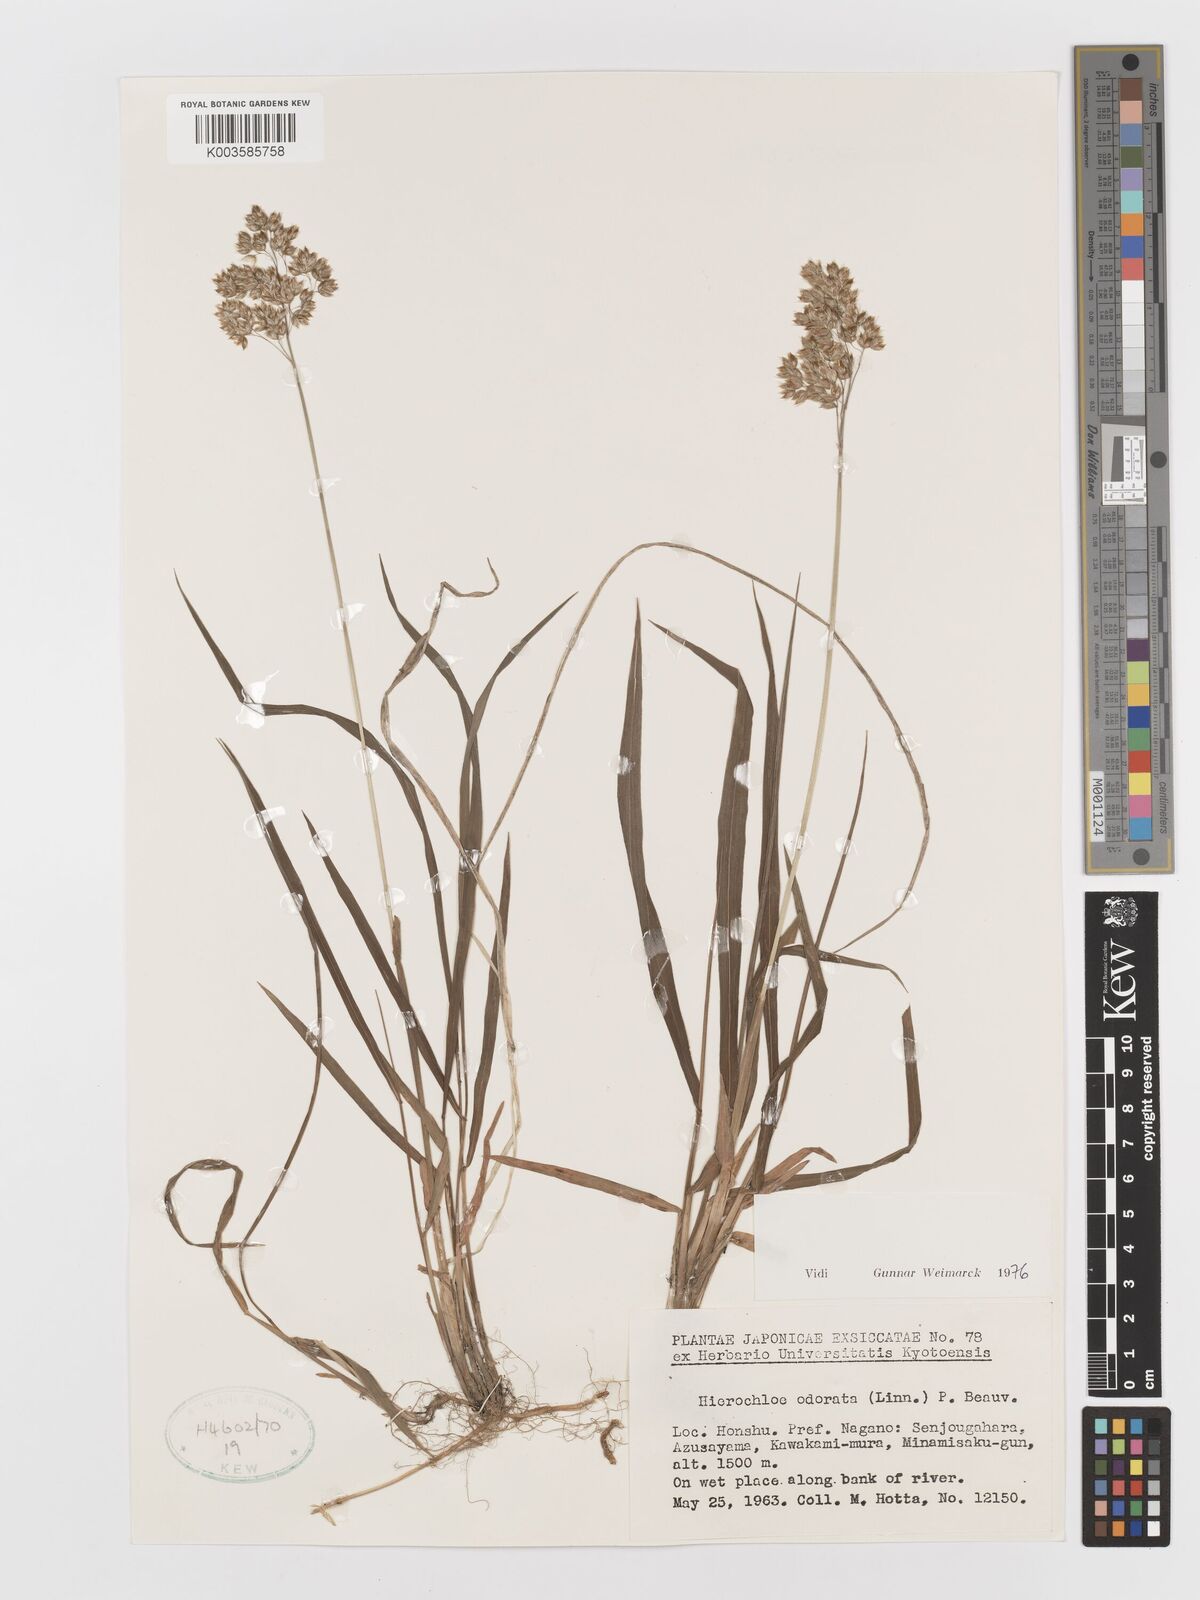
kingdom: Plantae
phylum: Tracheophyta
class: Liliopsida
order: Poales
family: Poaceae
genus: Anthoxanthum
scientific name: Anthoxanthum nitens
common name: Holy grass
